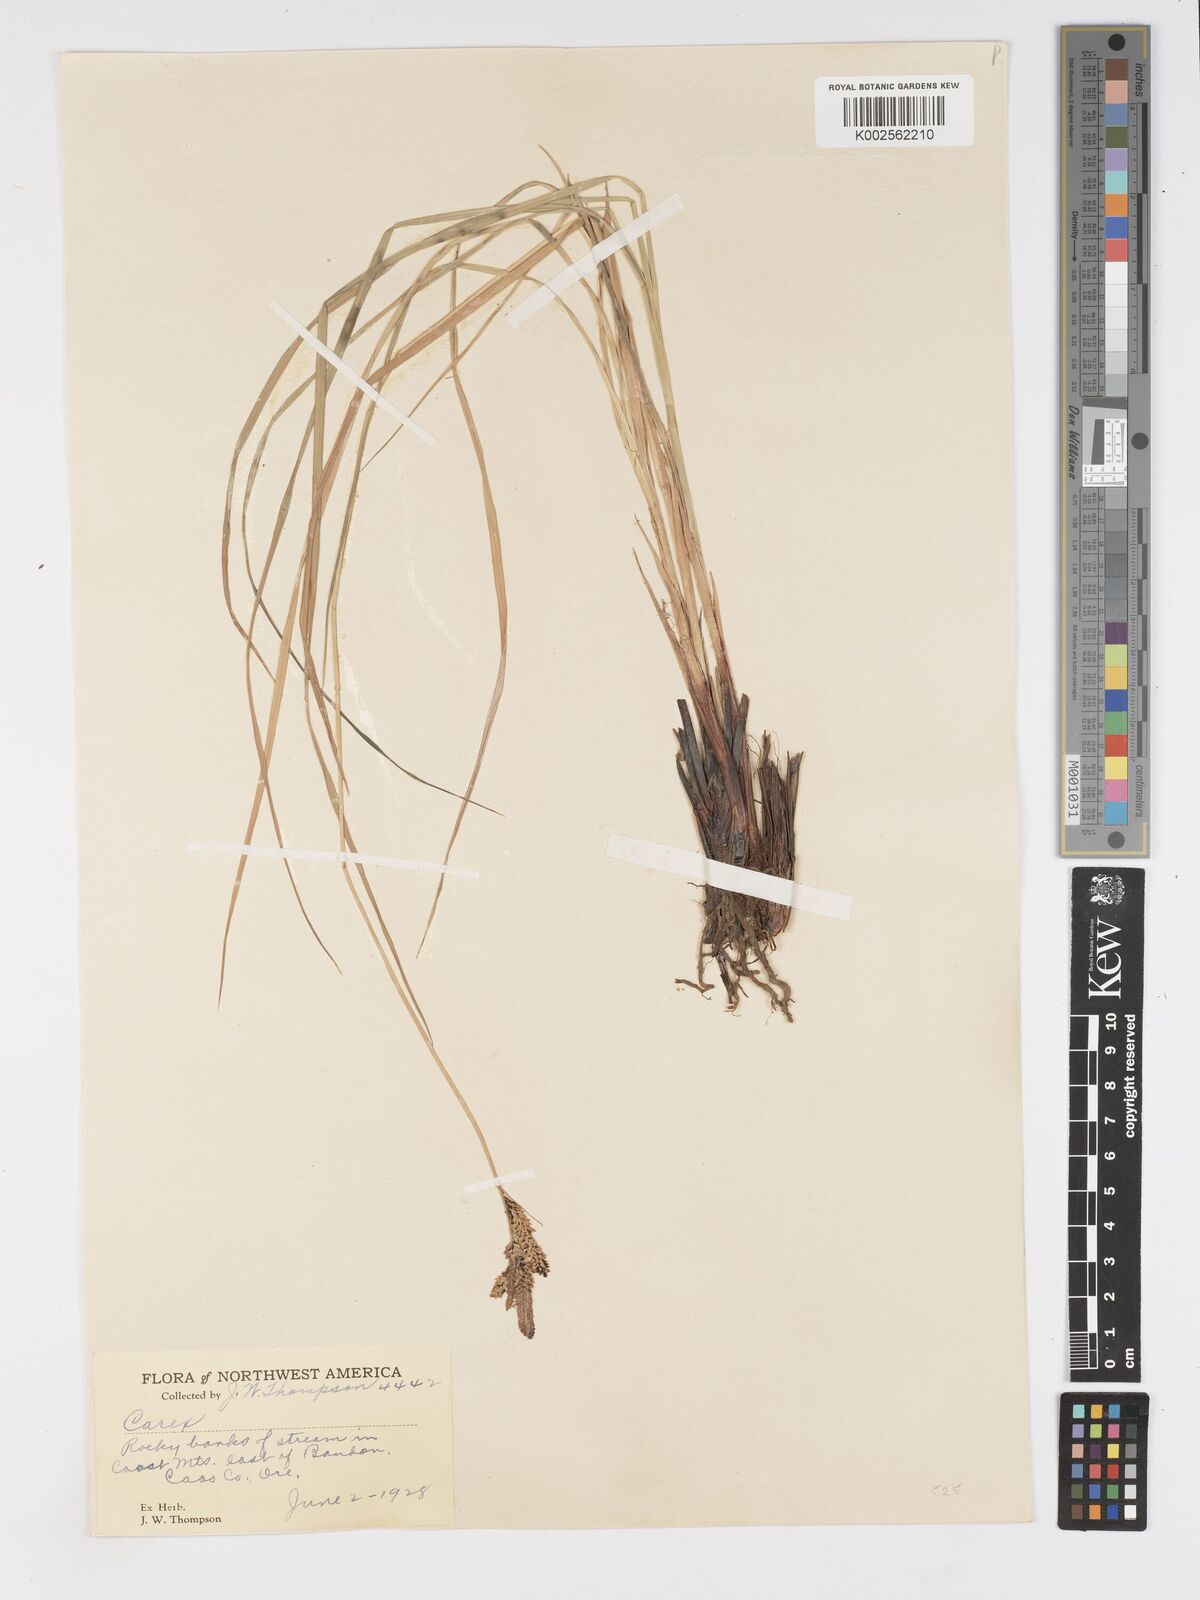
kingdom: Plantae
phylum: Tracheophyta
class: Liliopsida
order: Poales
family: Cyperaceae
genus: Carex
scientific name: Carex nigra
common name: Common sedge
